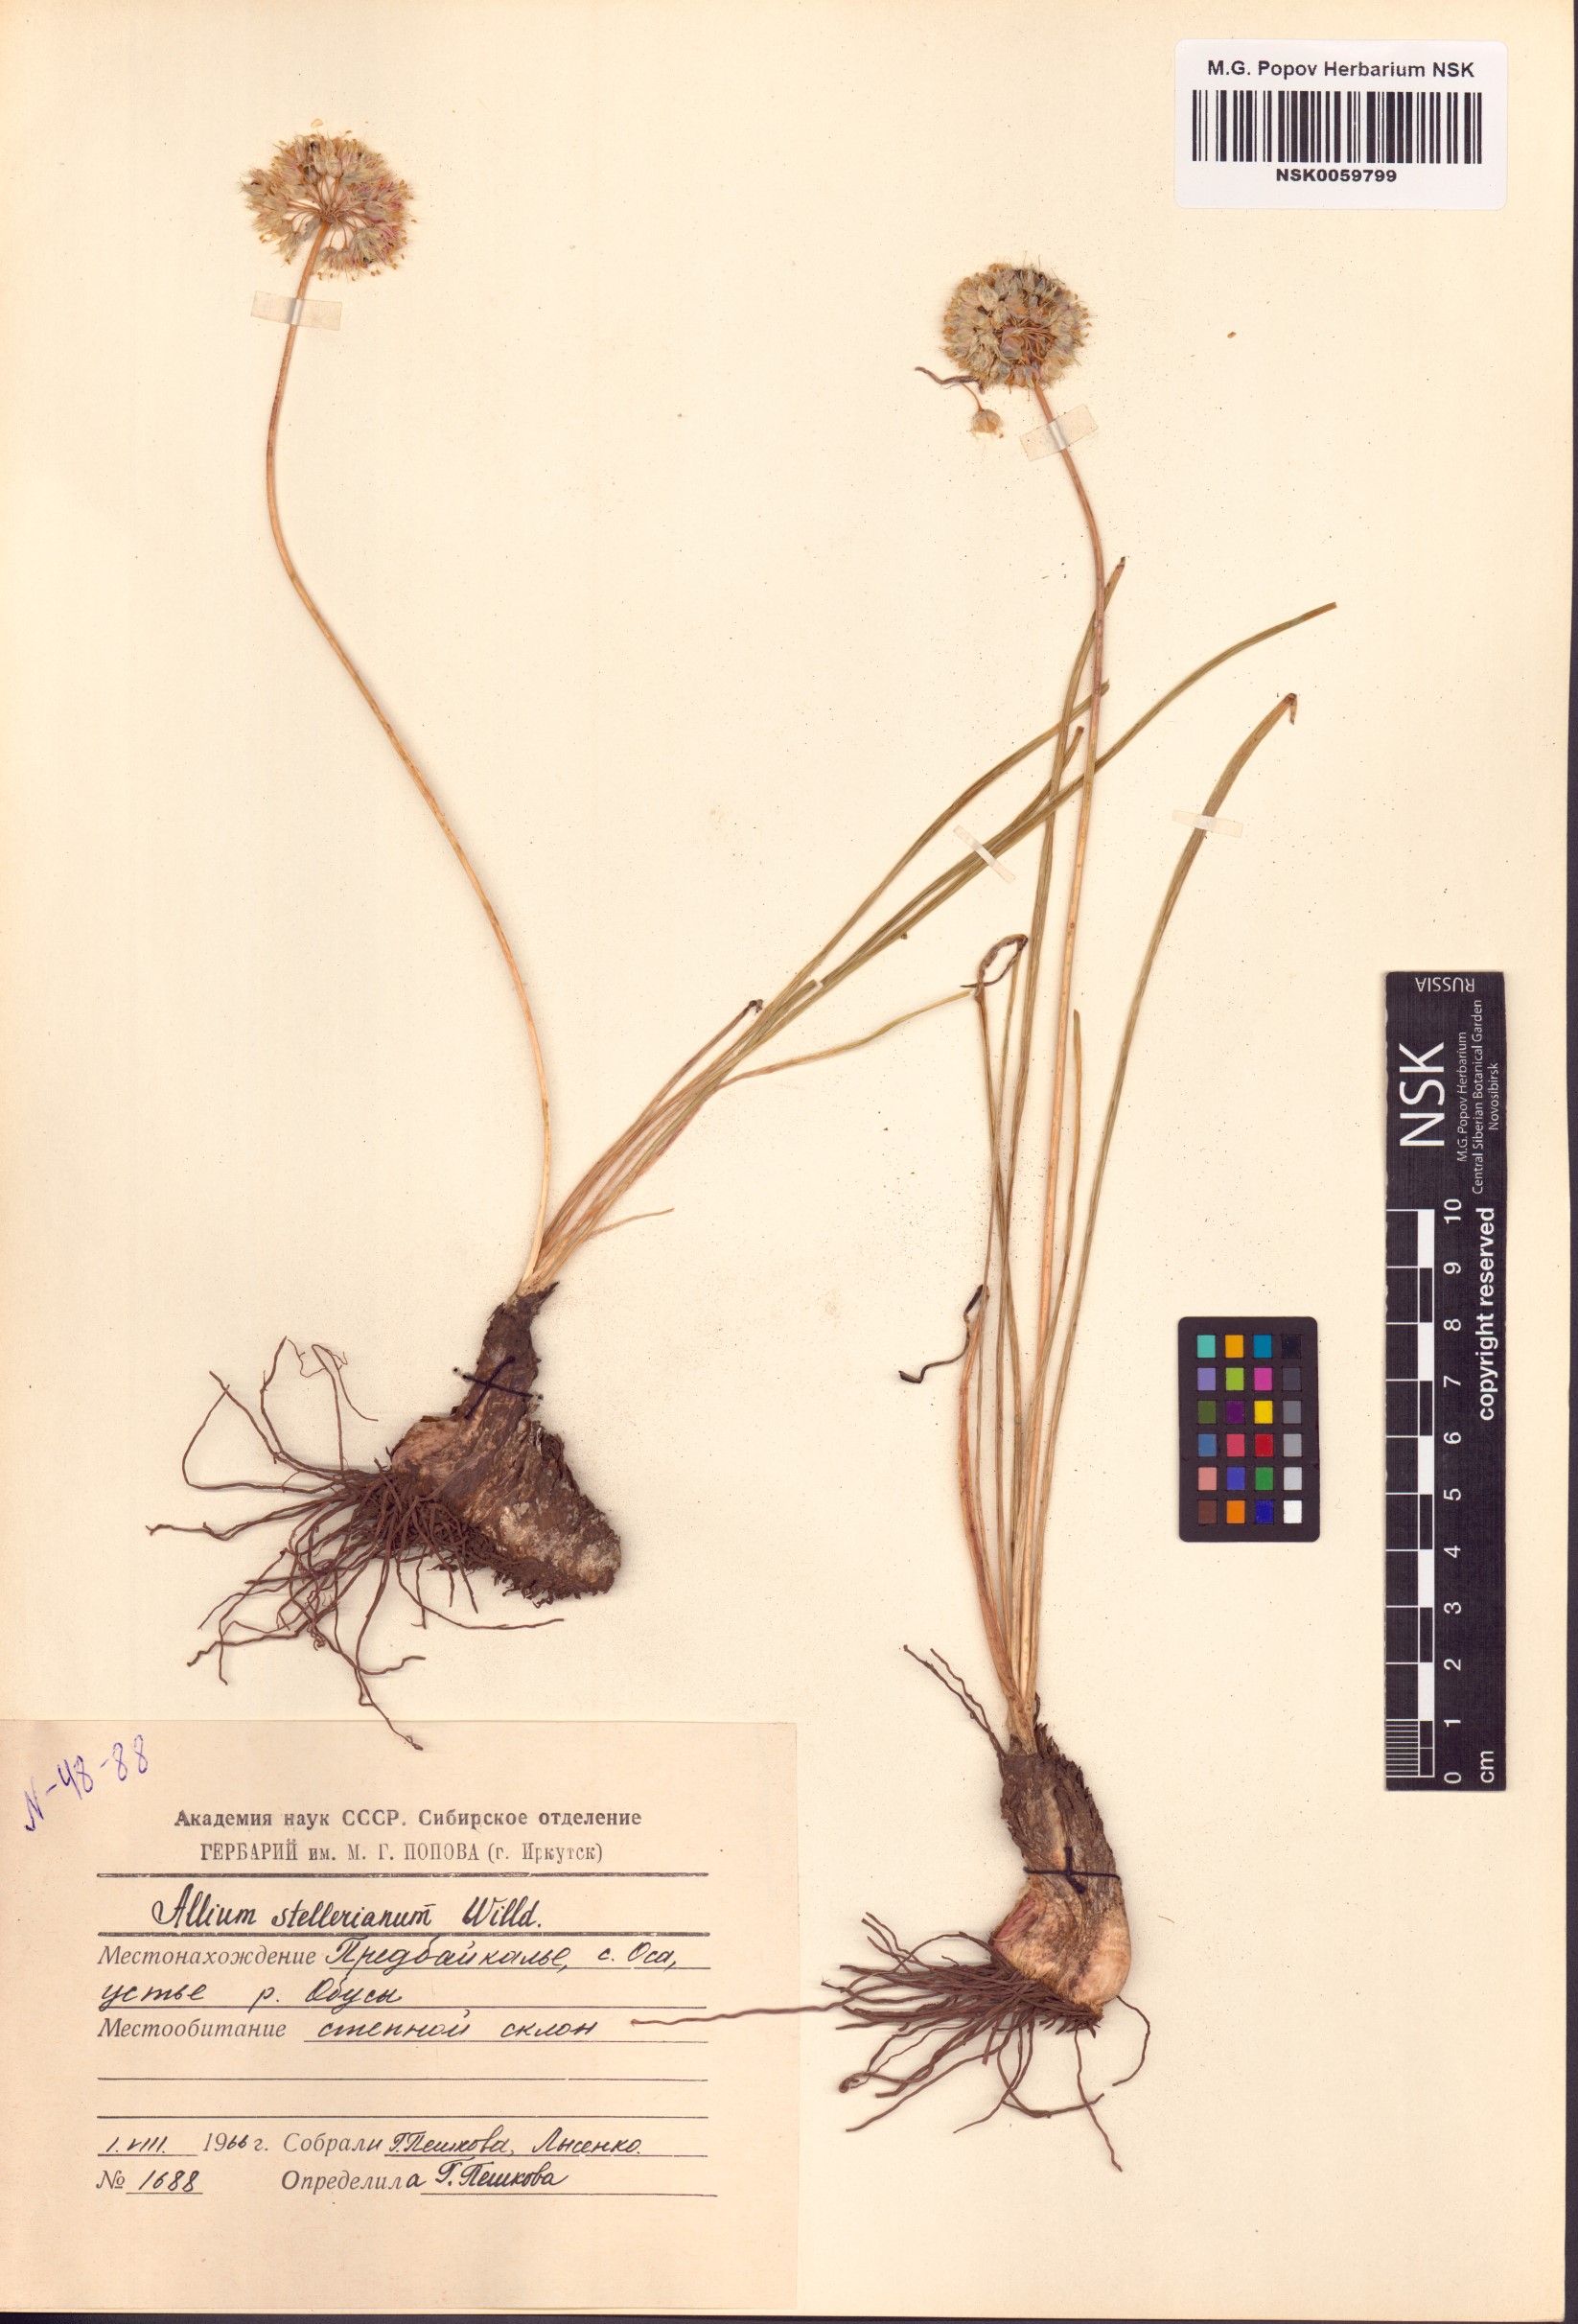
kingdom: Plantae
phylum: Tracheophyta
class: Liliopsida
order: Asparagales
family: Amaryllidaceae
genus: Allium
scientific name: Allium stellerianum
